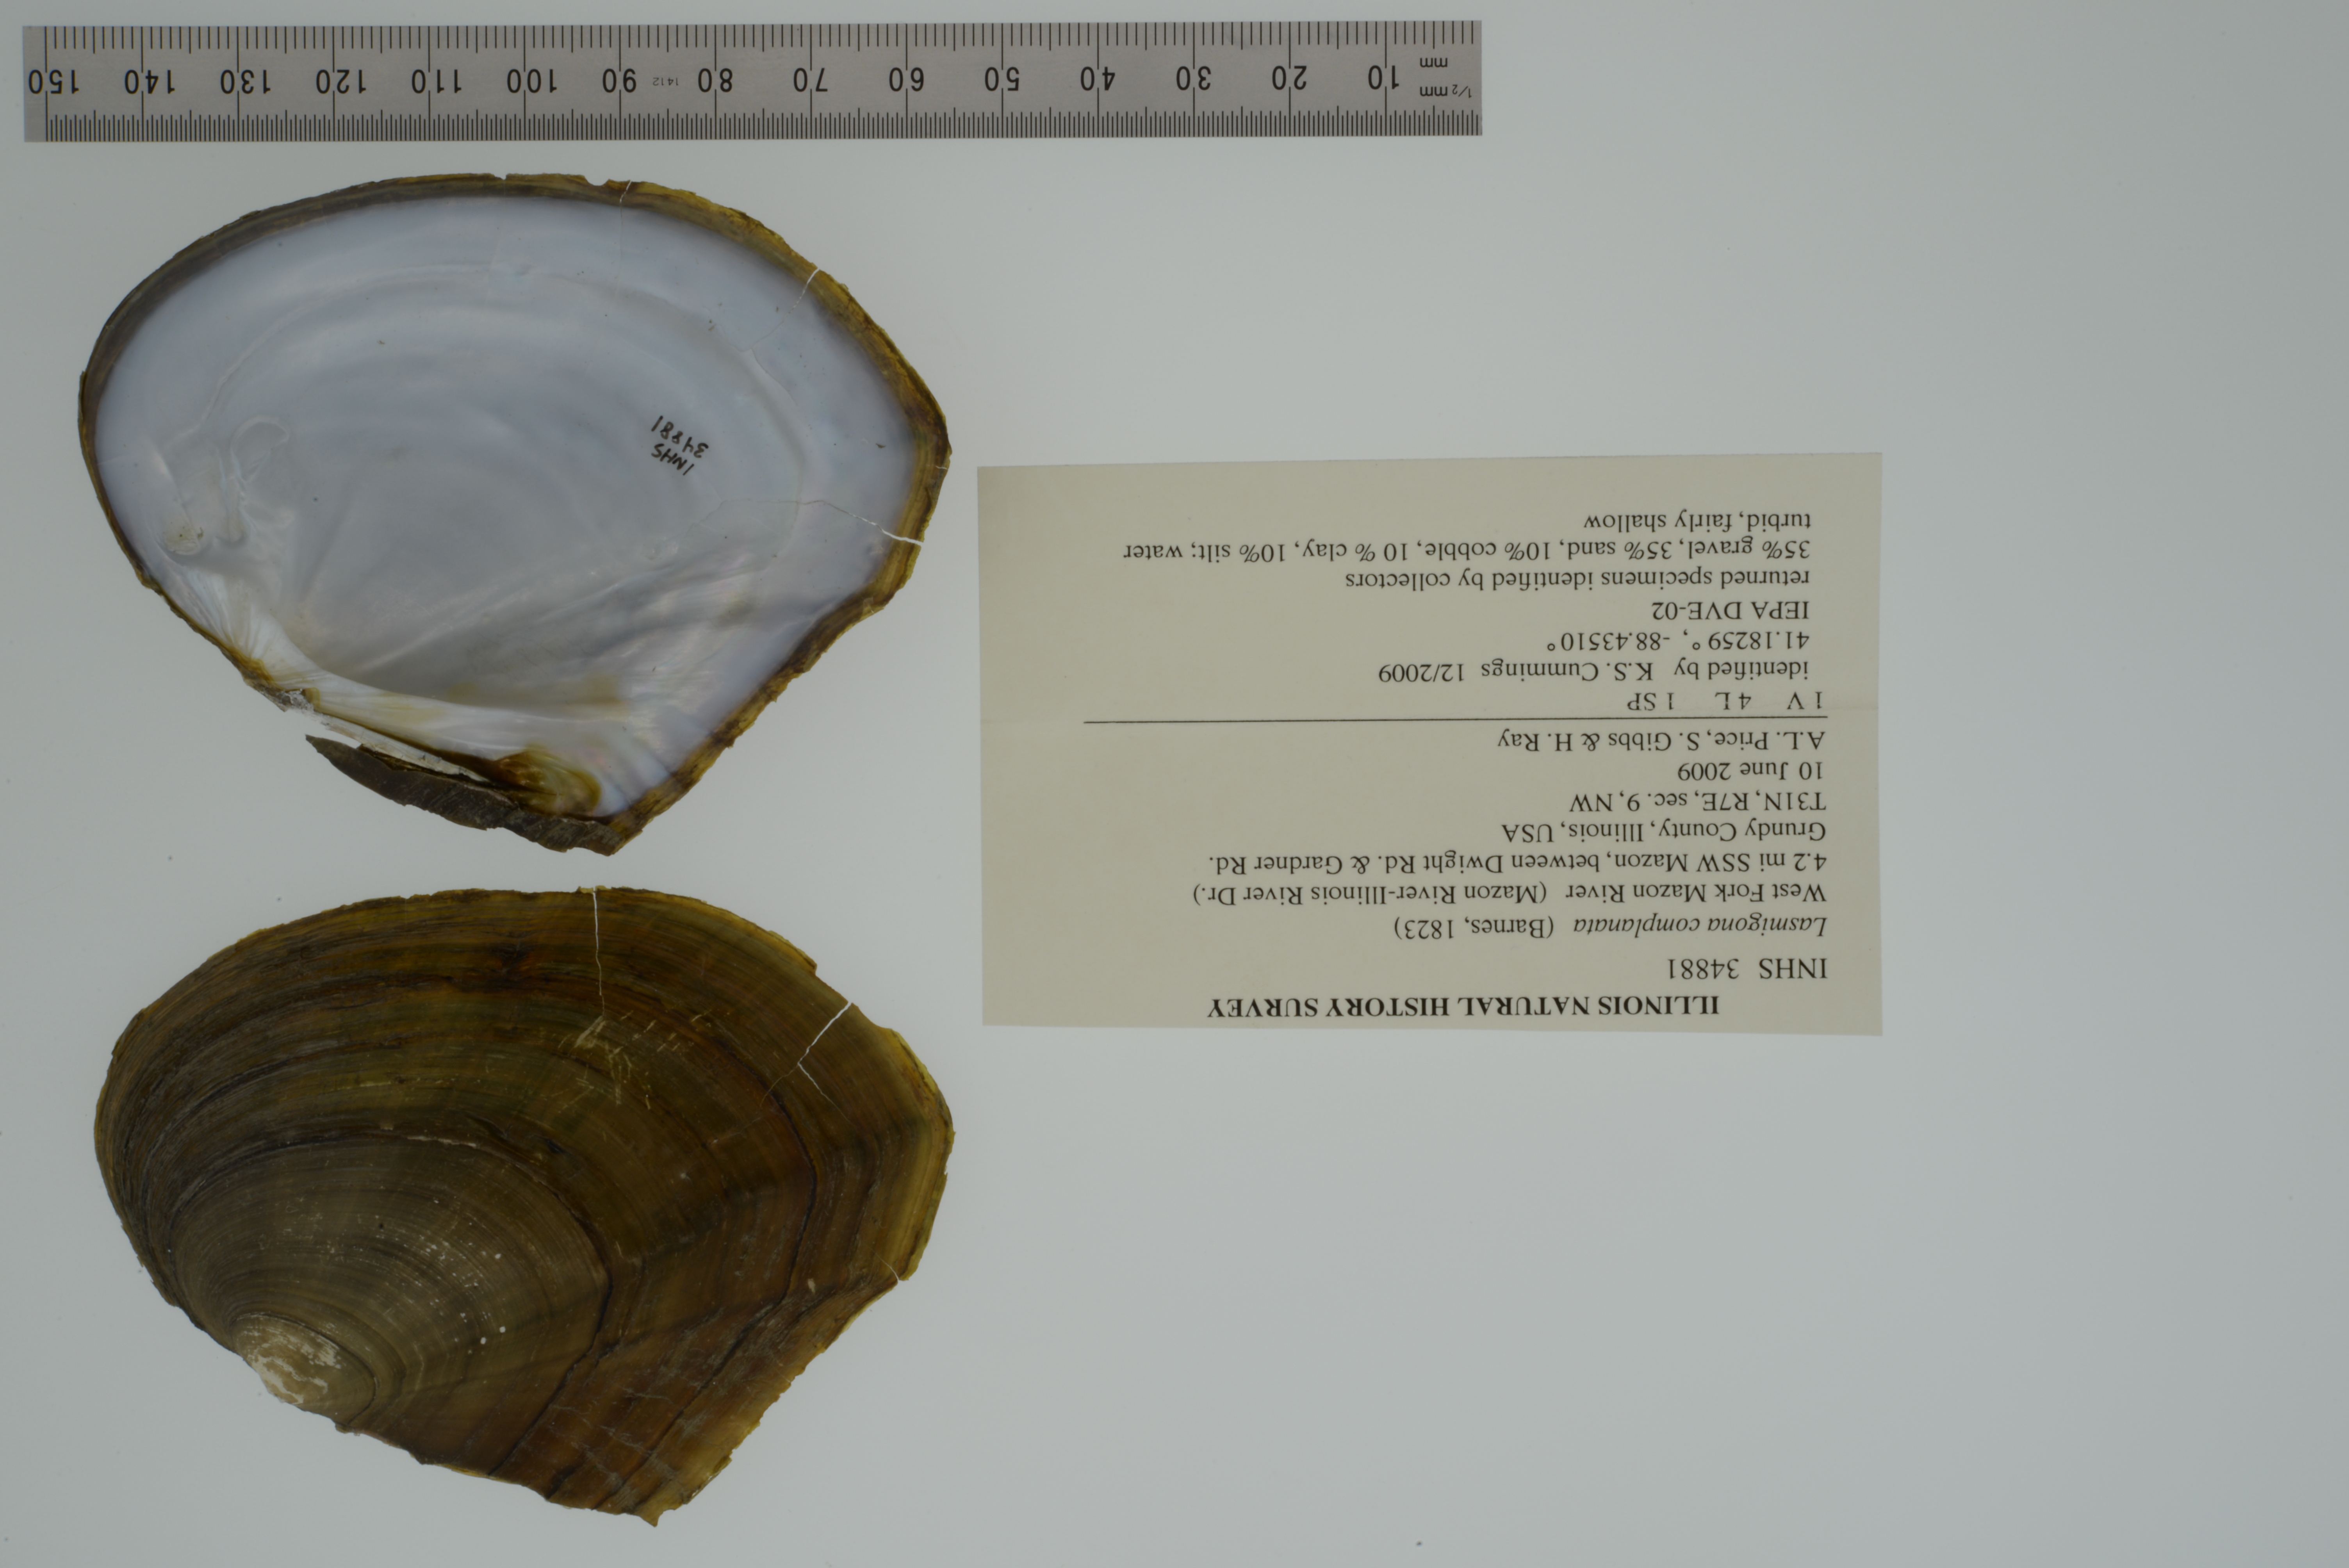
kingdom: Animalia
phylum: Mollusca
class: Bivalvia
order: Unionida
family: Unionidae
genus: Lasmigona
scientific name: Lasmigona complanata
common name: White heelsplitter
